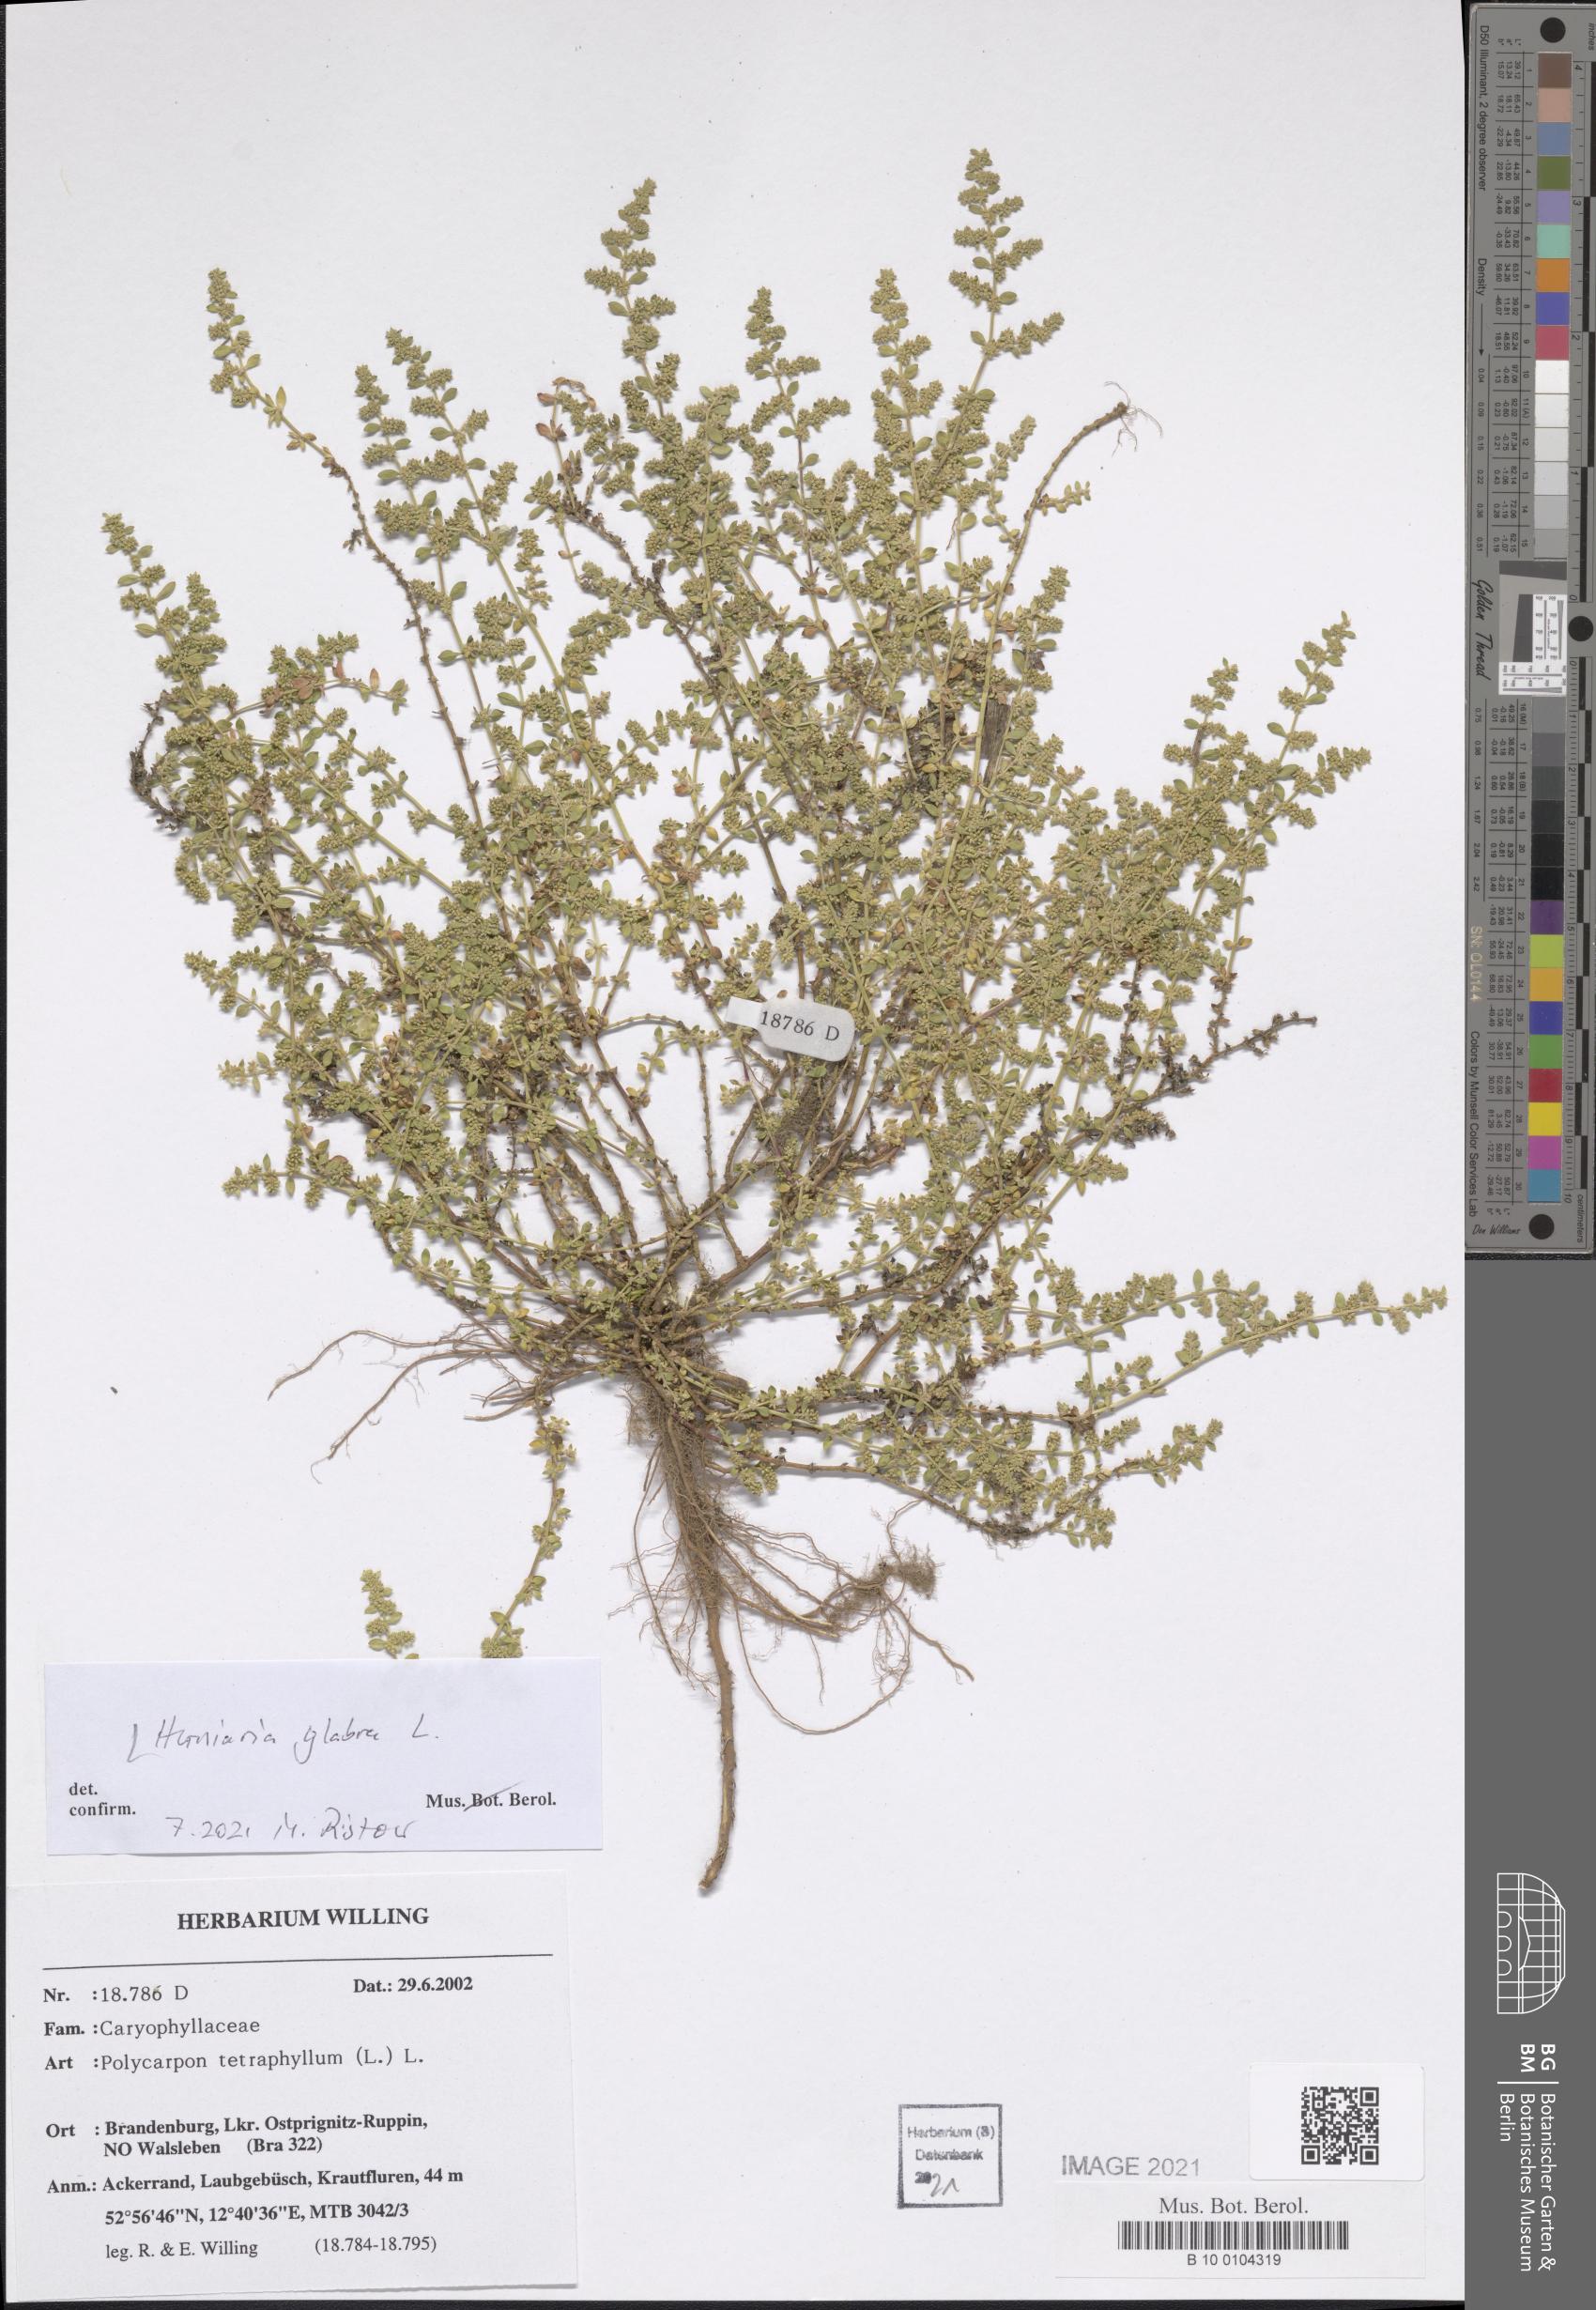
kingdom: Plantae
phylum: Tracheophyta
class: Magnoliopsida
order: Caryophyllales
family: Caryophyllaceae
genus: Herniaria
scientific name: Herniaria glabra
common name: Smooth rupturewort
